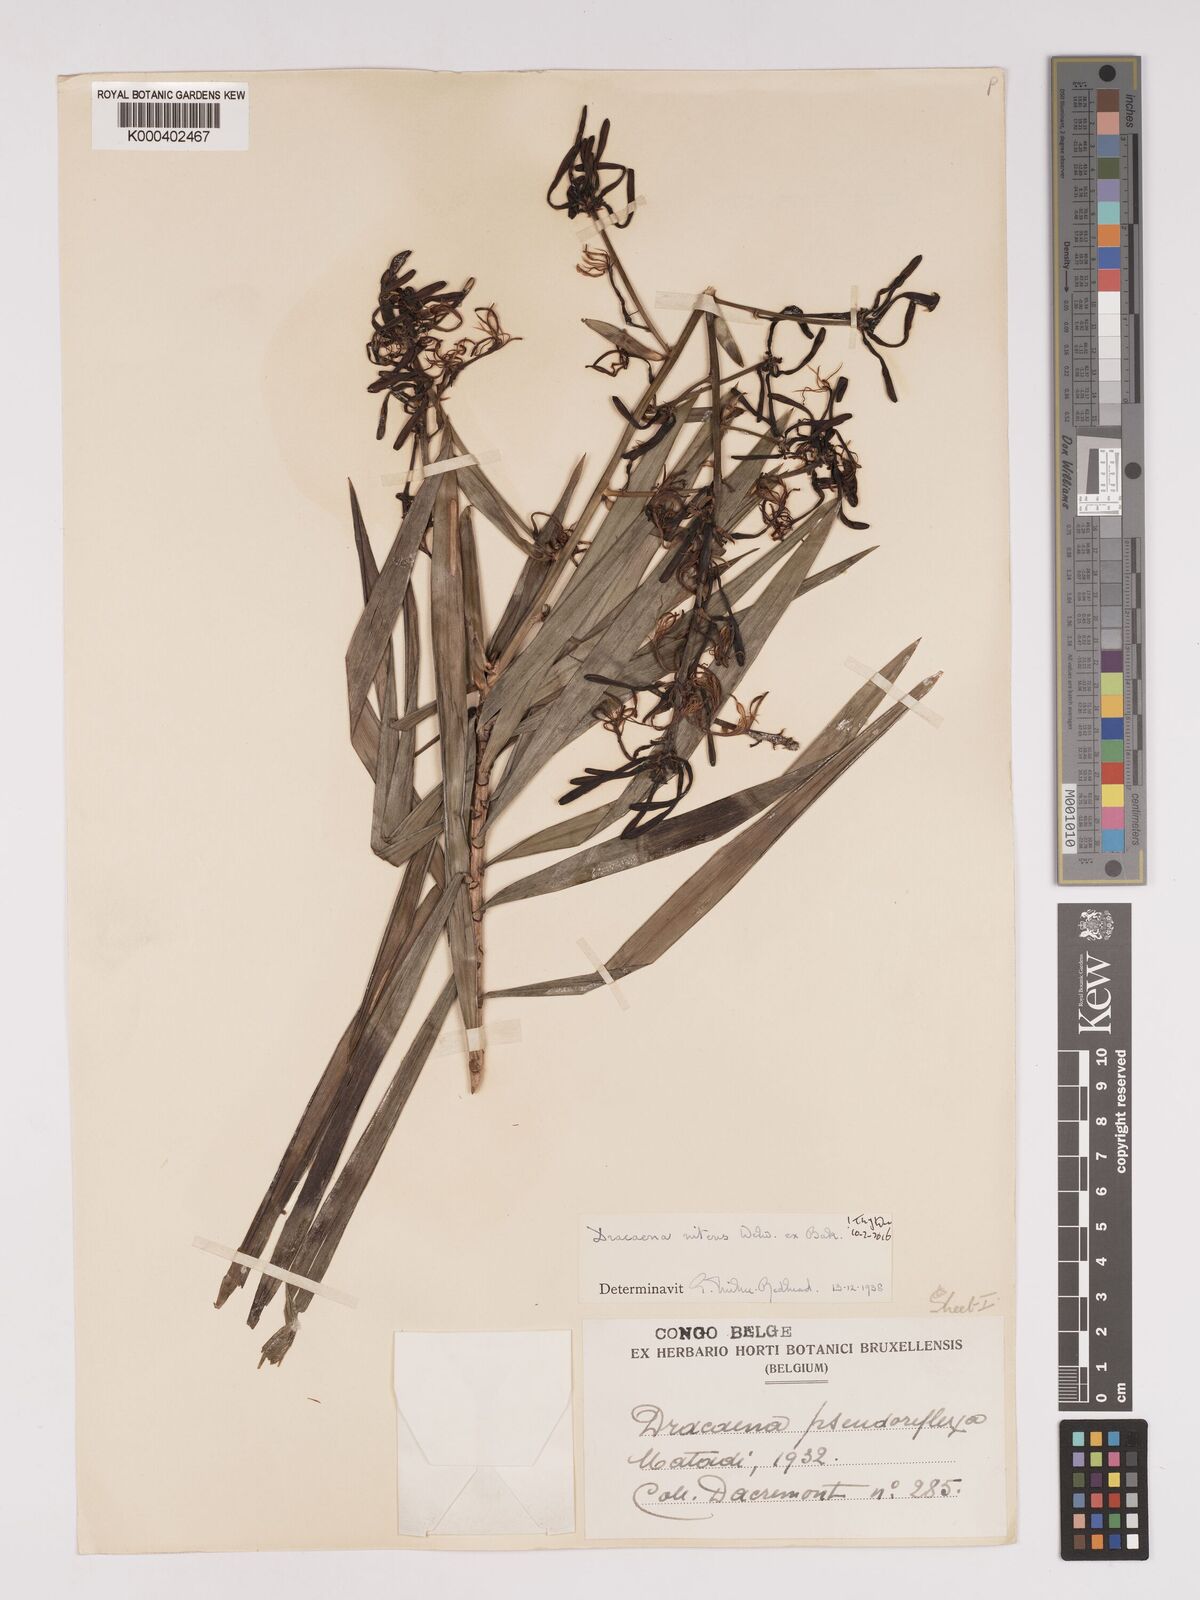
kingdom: Plantae
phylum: Tracheophyta
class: Liliopsida
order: Asparagales
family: Asparagaceae
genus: Dracaena
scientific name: Dracaena nitens
